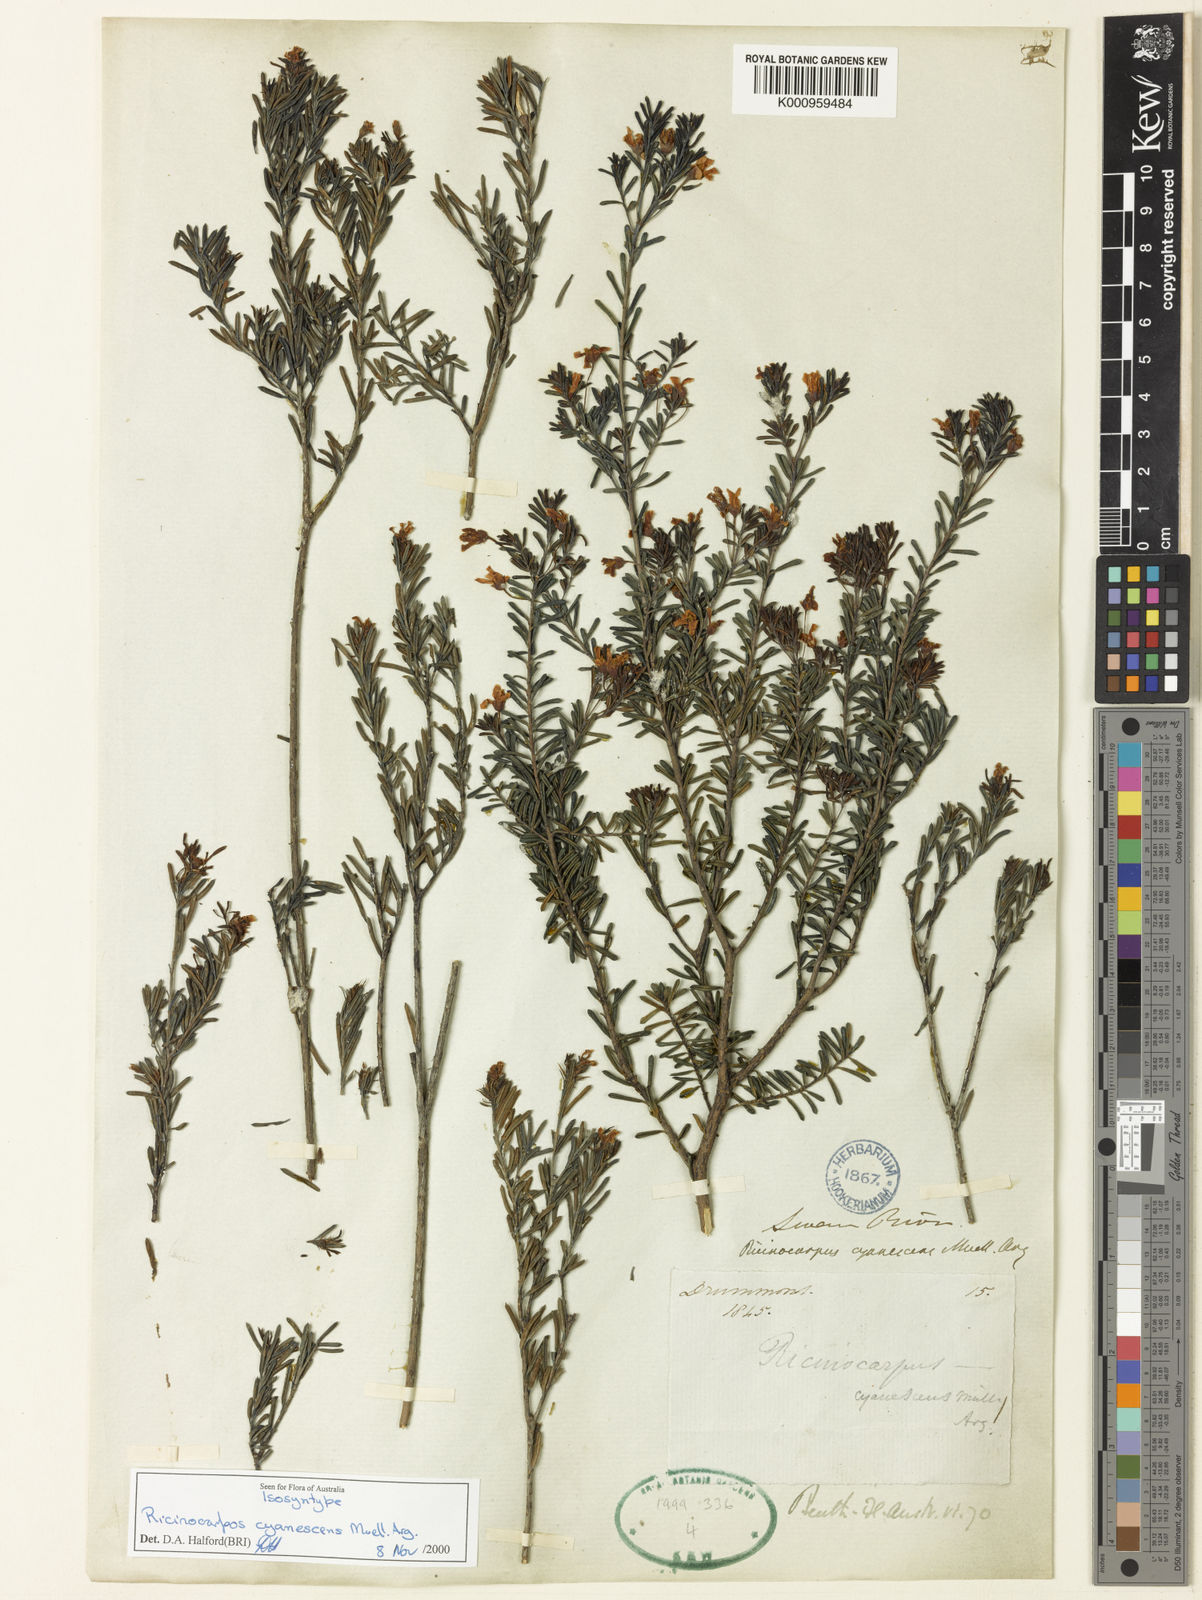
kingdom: Plantae
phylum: Tracheophyta
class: Magnoliopsida
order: Malpighiales
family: Euphorbiaceae
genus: Ricinocarpos
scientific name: Ricinocarpos
